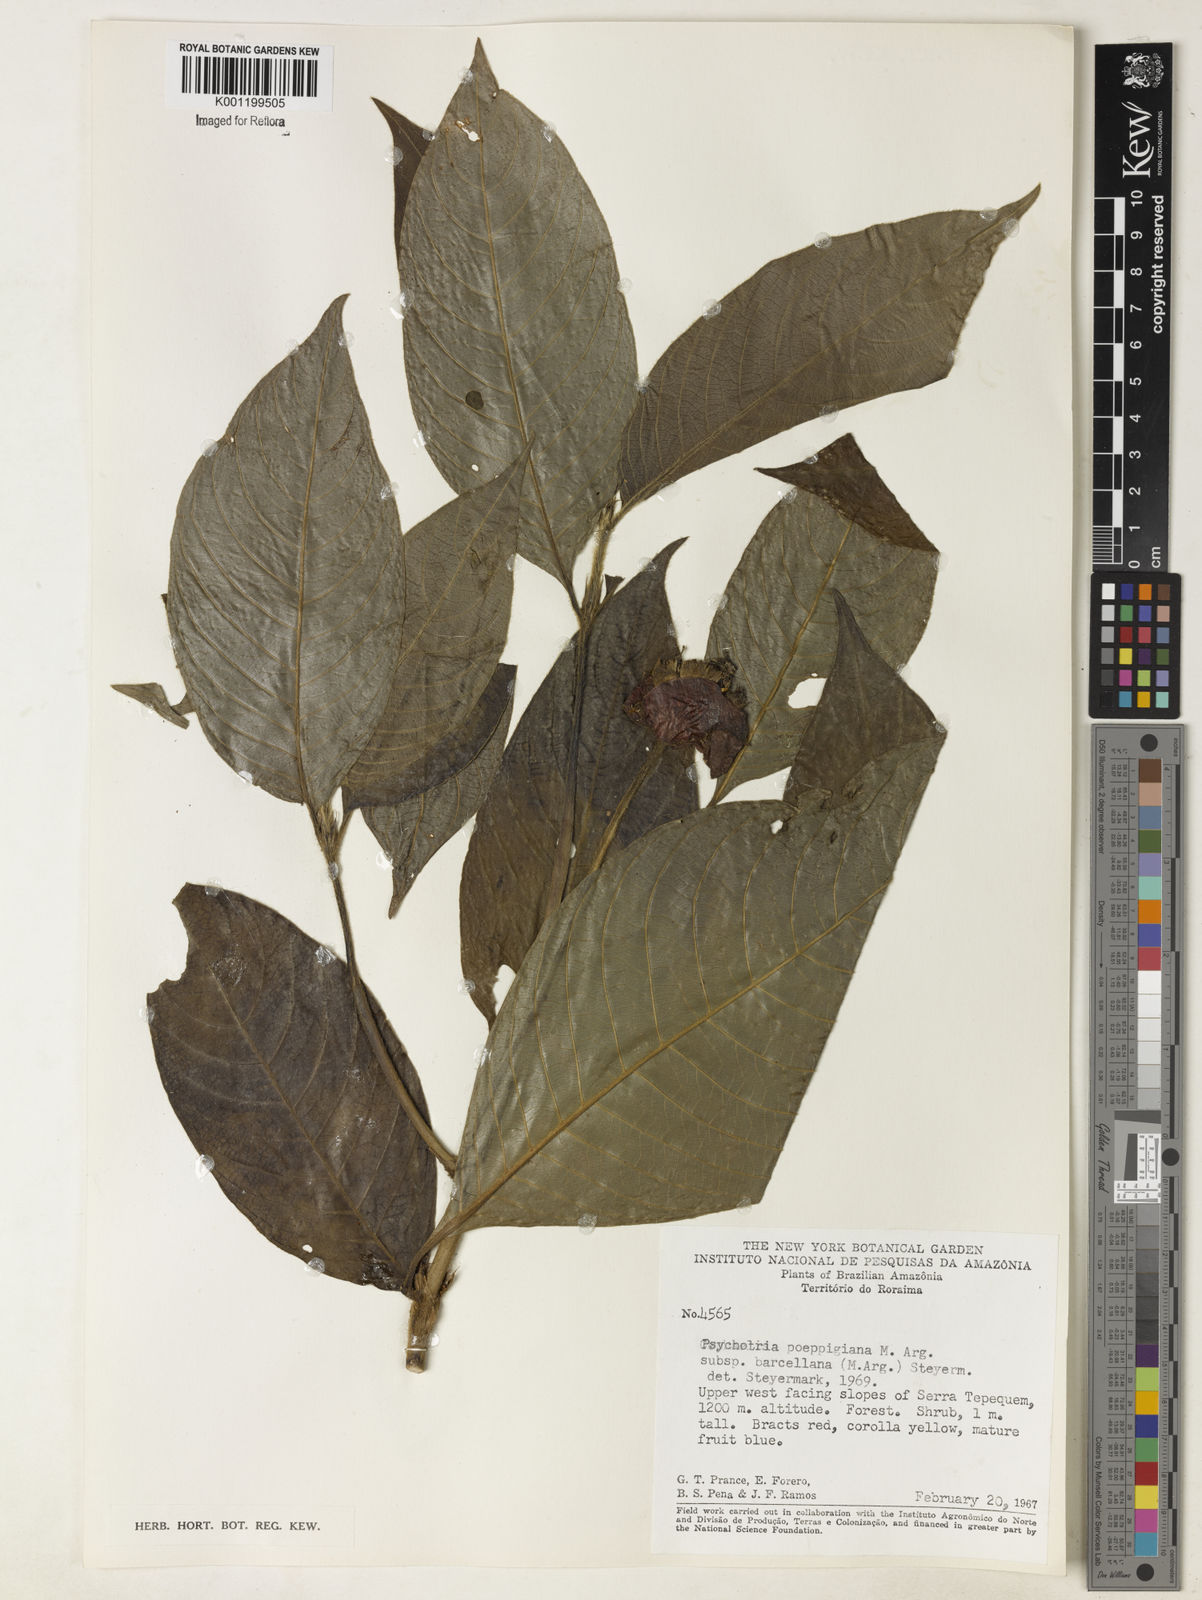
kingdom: Plantae
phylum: Tracheophyta
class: Magnoliopsida
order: Gentianales
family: Rubiaceae
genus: Psychotria
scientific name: Psychotria
